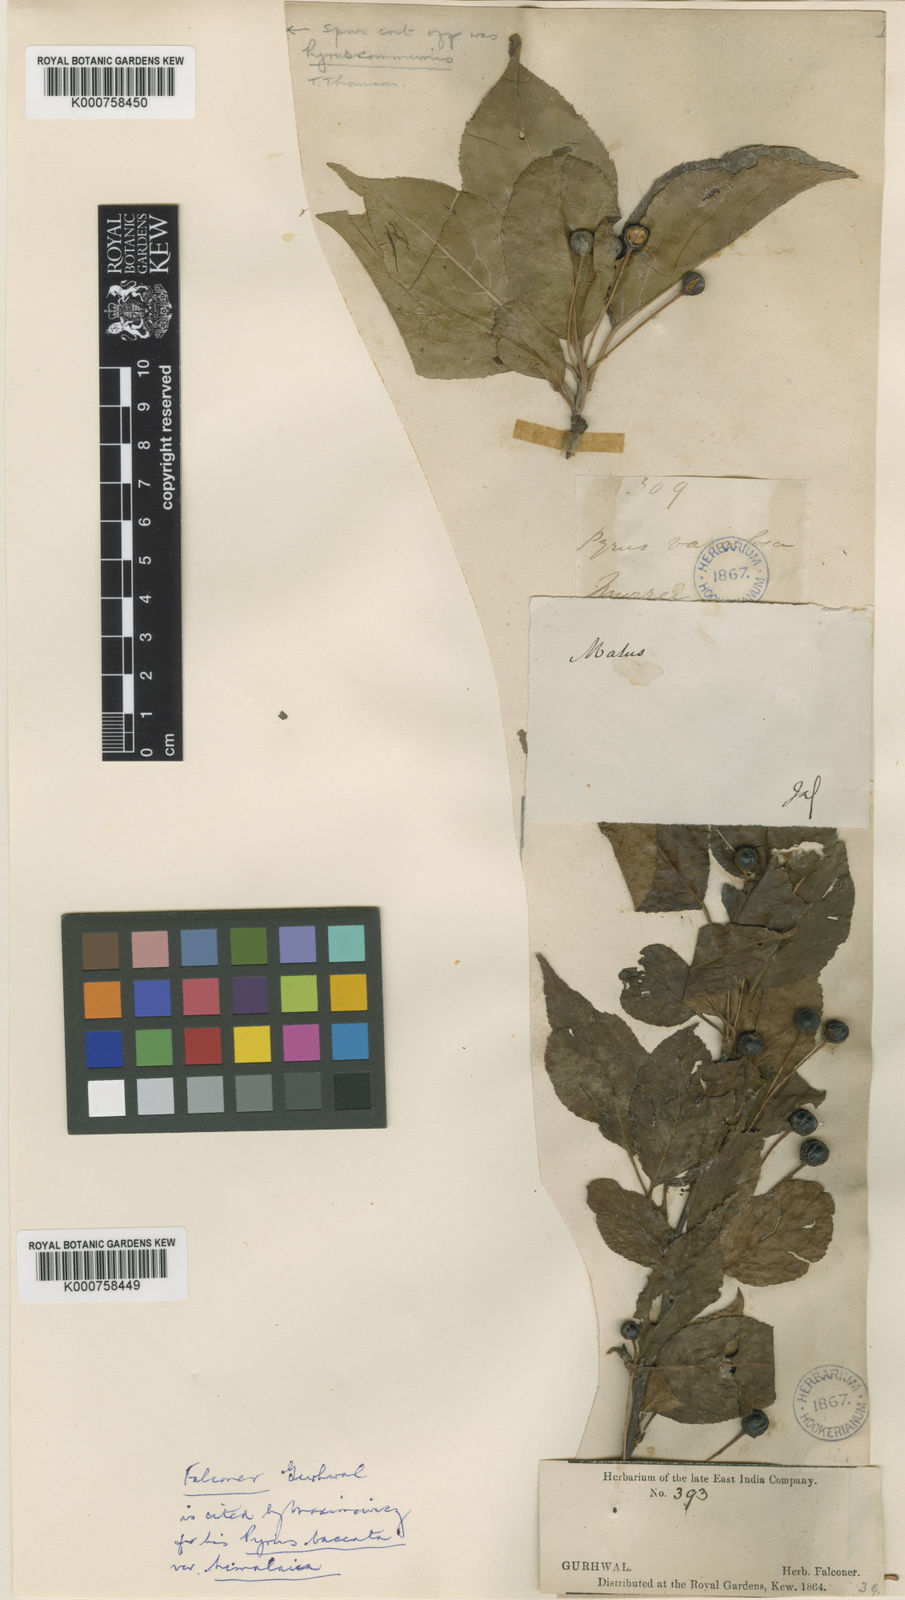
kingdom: Plantae
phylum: Tracheophyta
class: Magnoliopsida
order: Rosales
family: Rosaceae
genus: Malus
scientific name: Malus rockii
